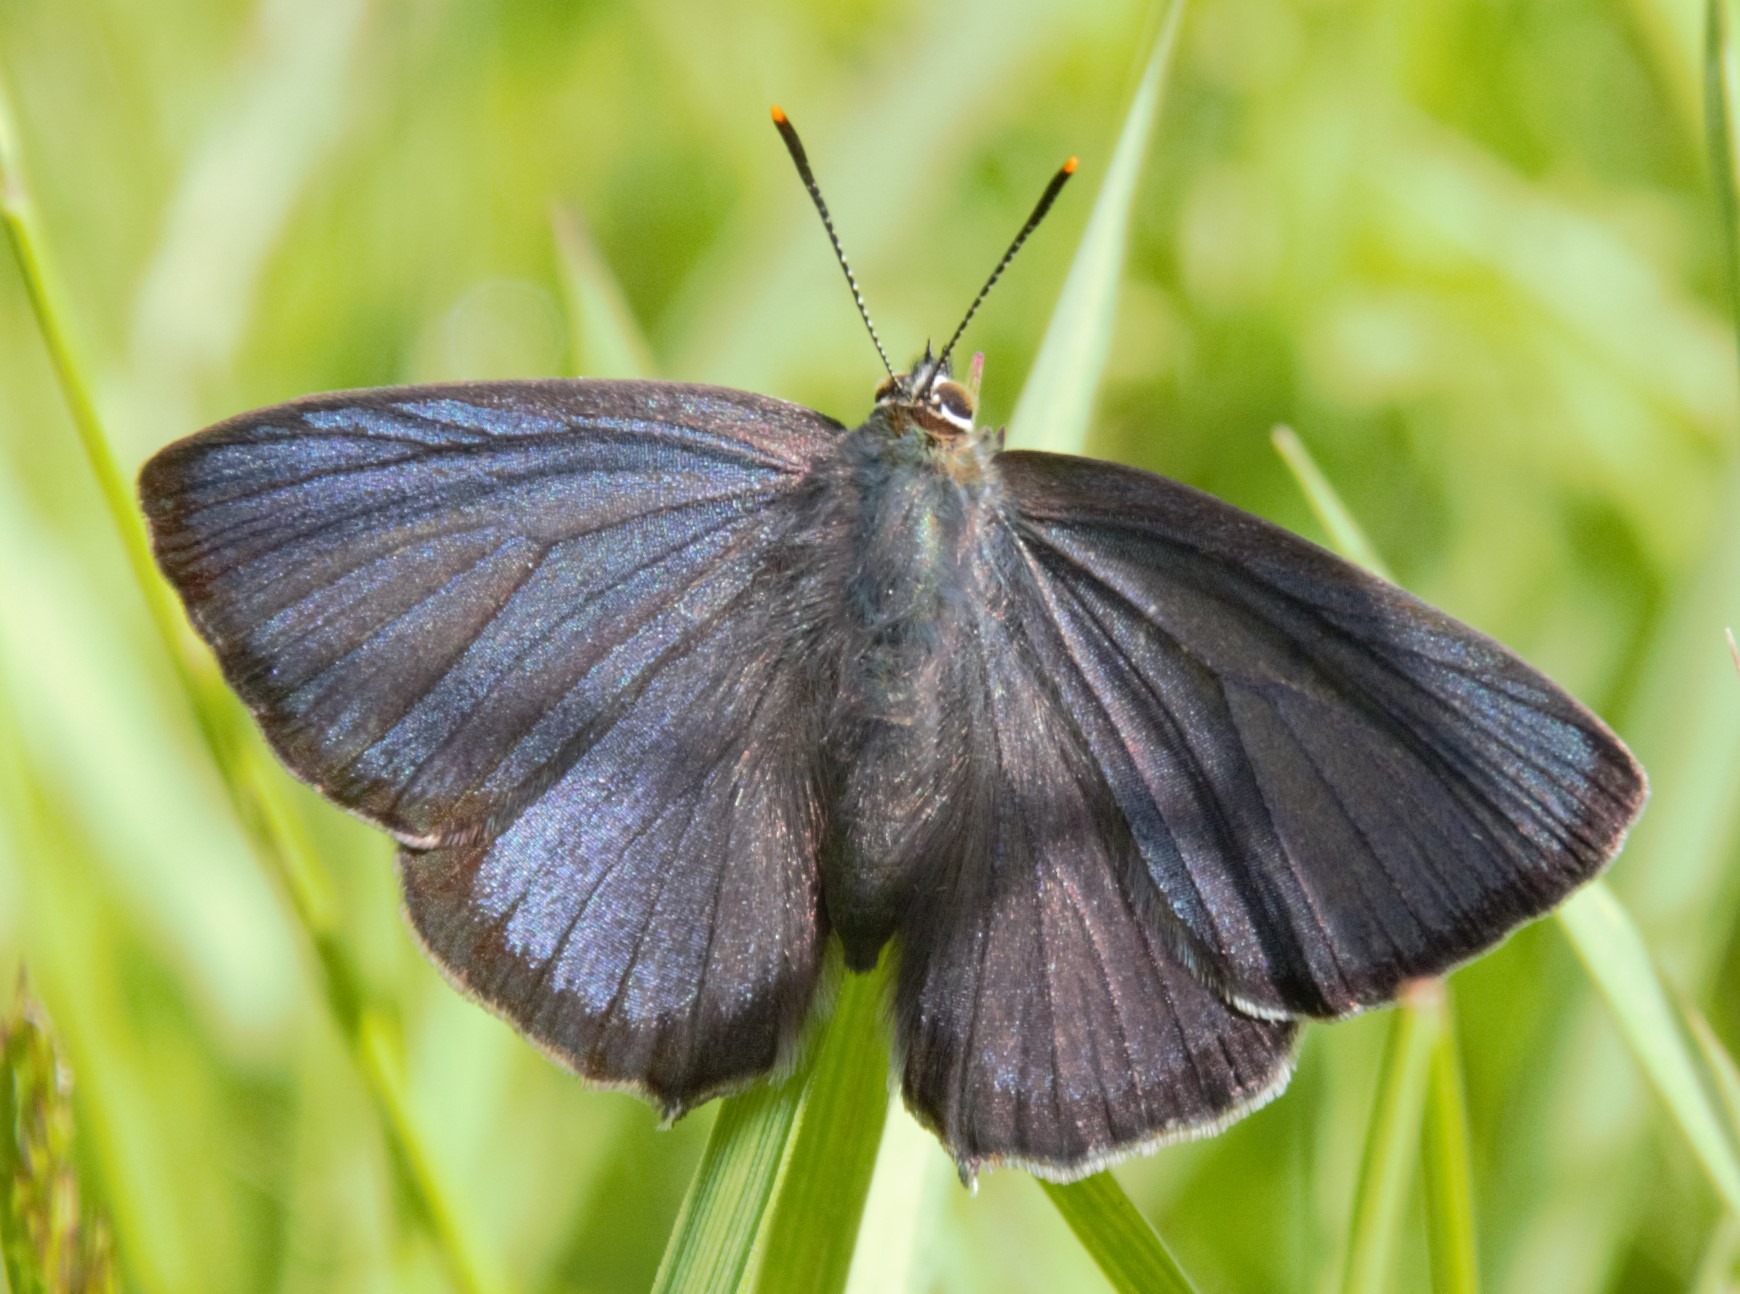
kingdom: Animalia
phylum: Arthropoda
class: Insecta
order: Lepidoptera
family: Lycaenidae
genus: Quercusia
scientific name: Quercusia quercus
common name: Blåhale
